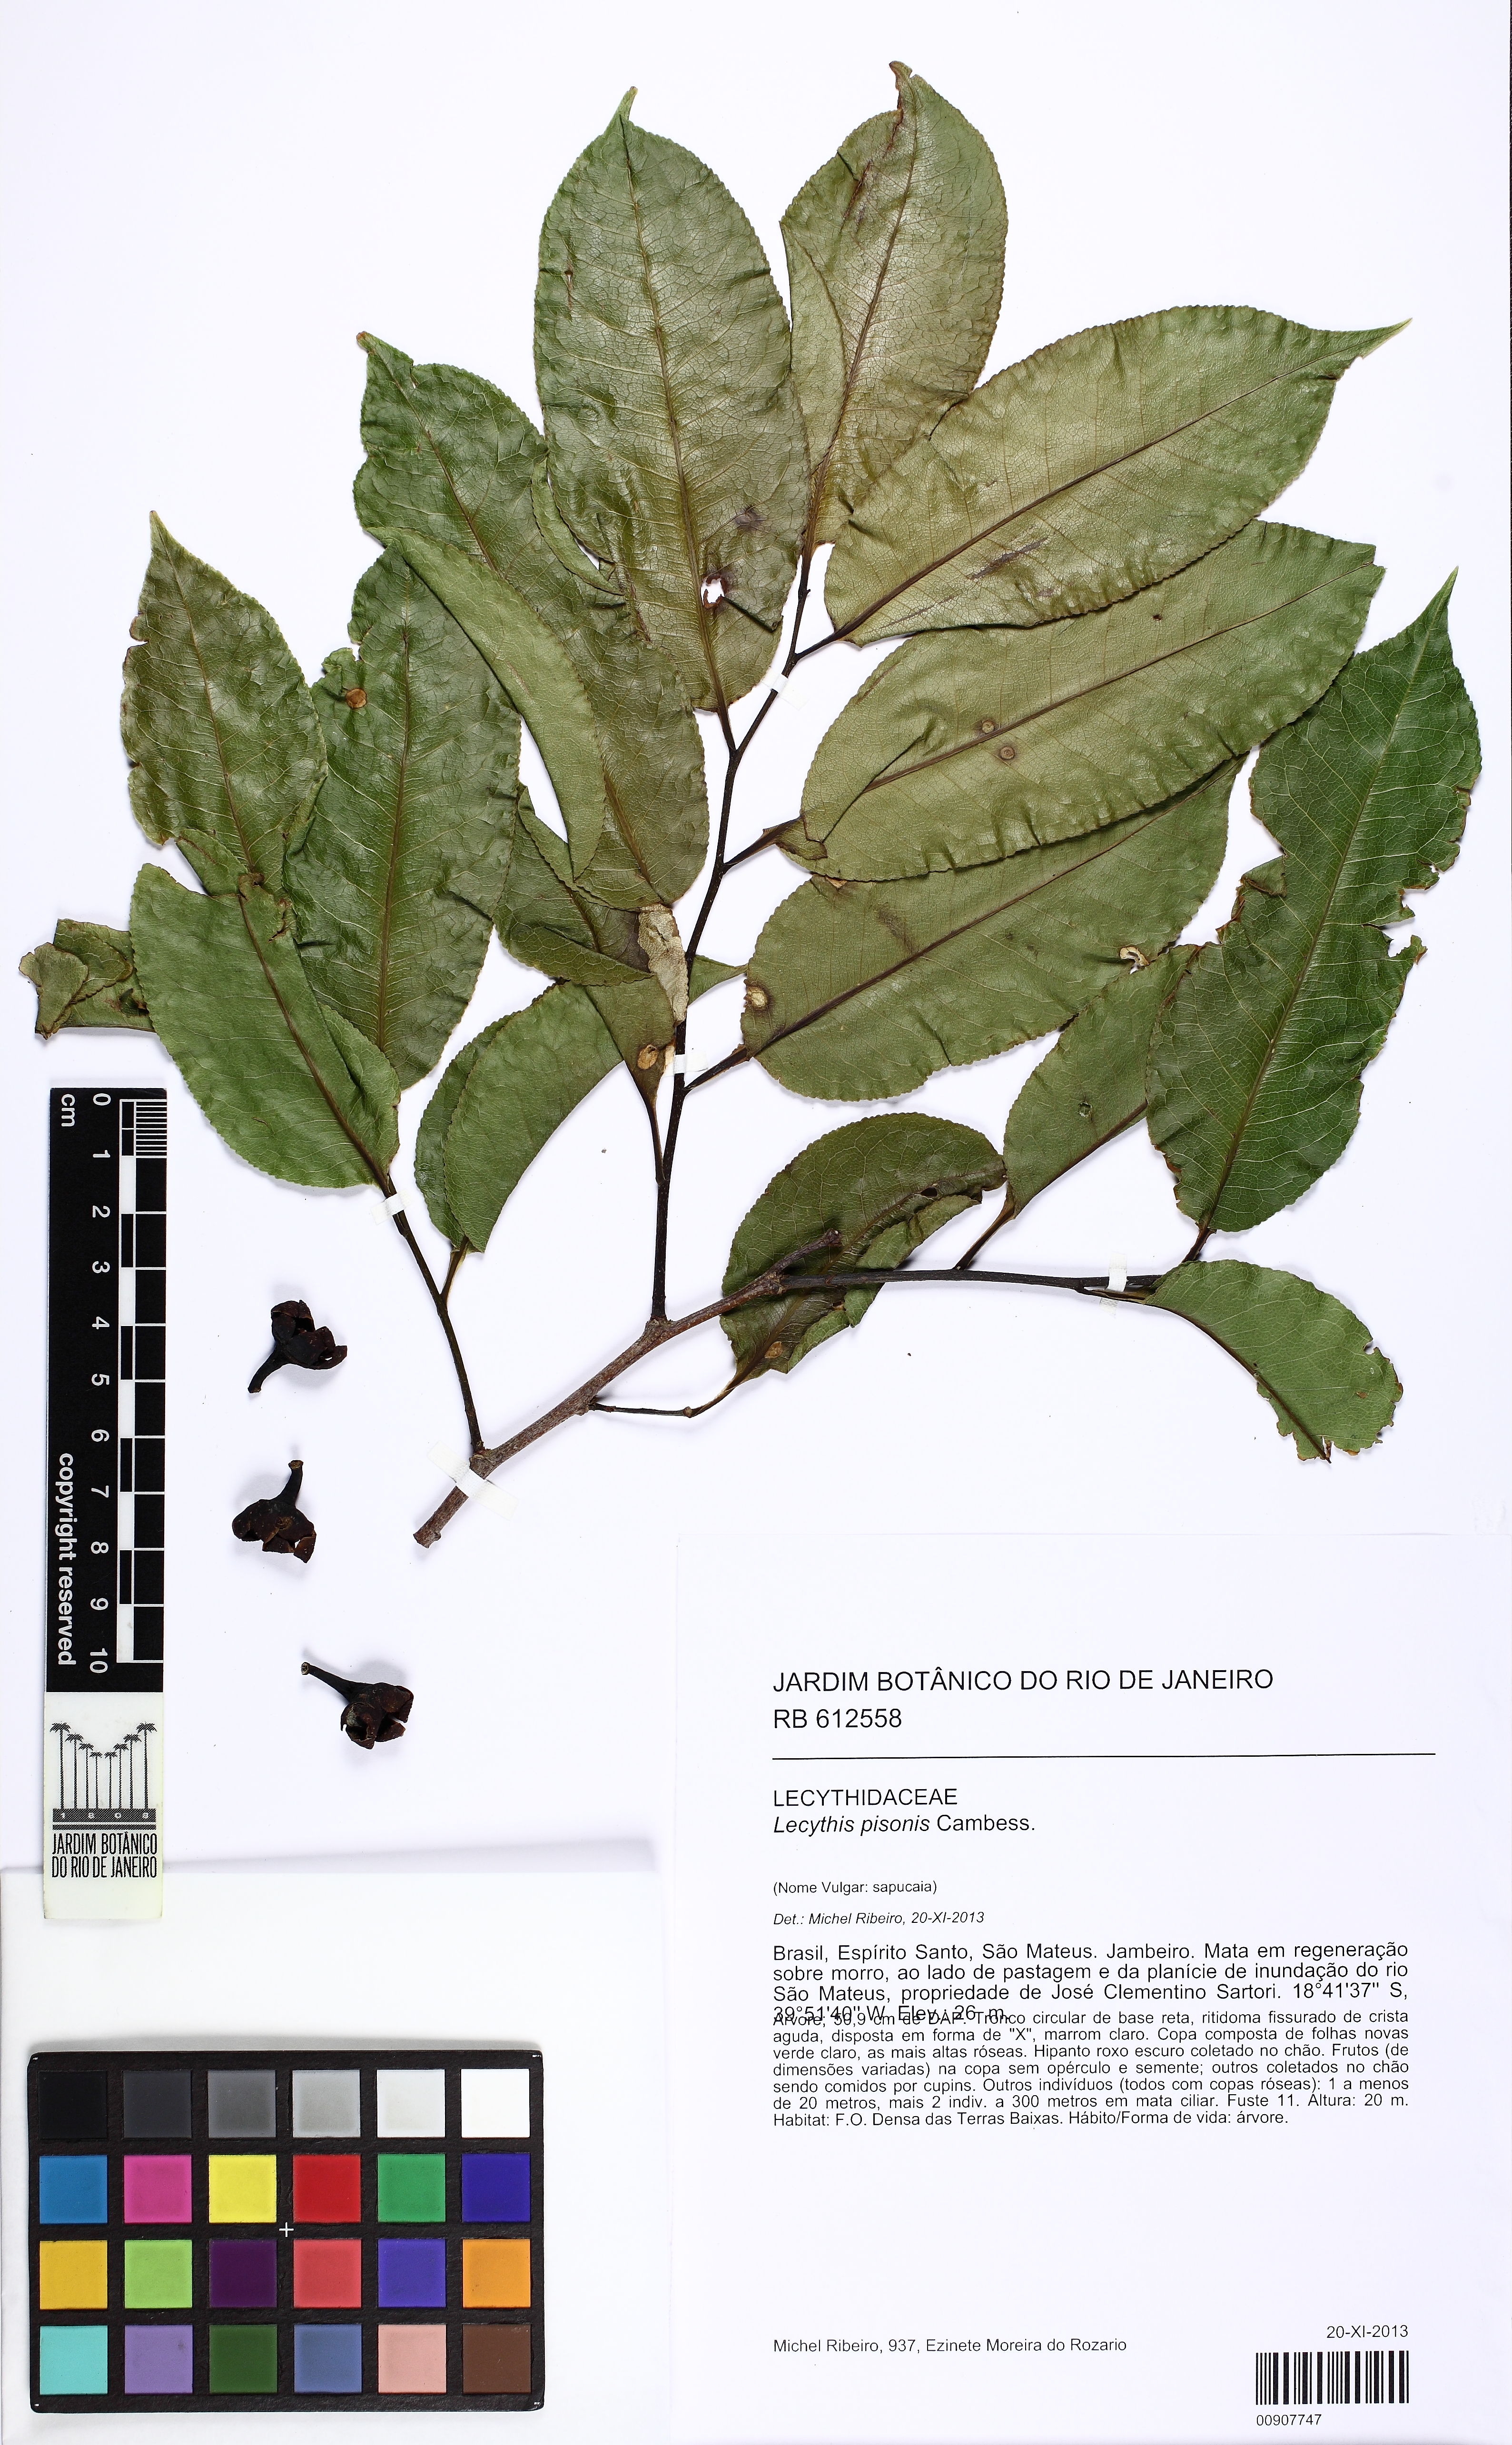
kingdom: Plantae
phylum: Tracheophyta
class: Magnoliopsida
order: Ericales
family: Lecythidaceae
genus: Lecythis
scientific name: Lecythis pisonis
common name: Paradise-nut
